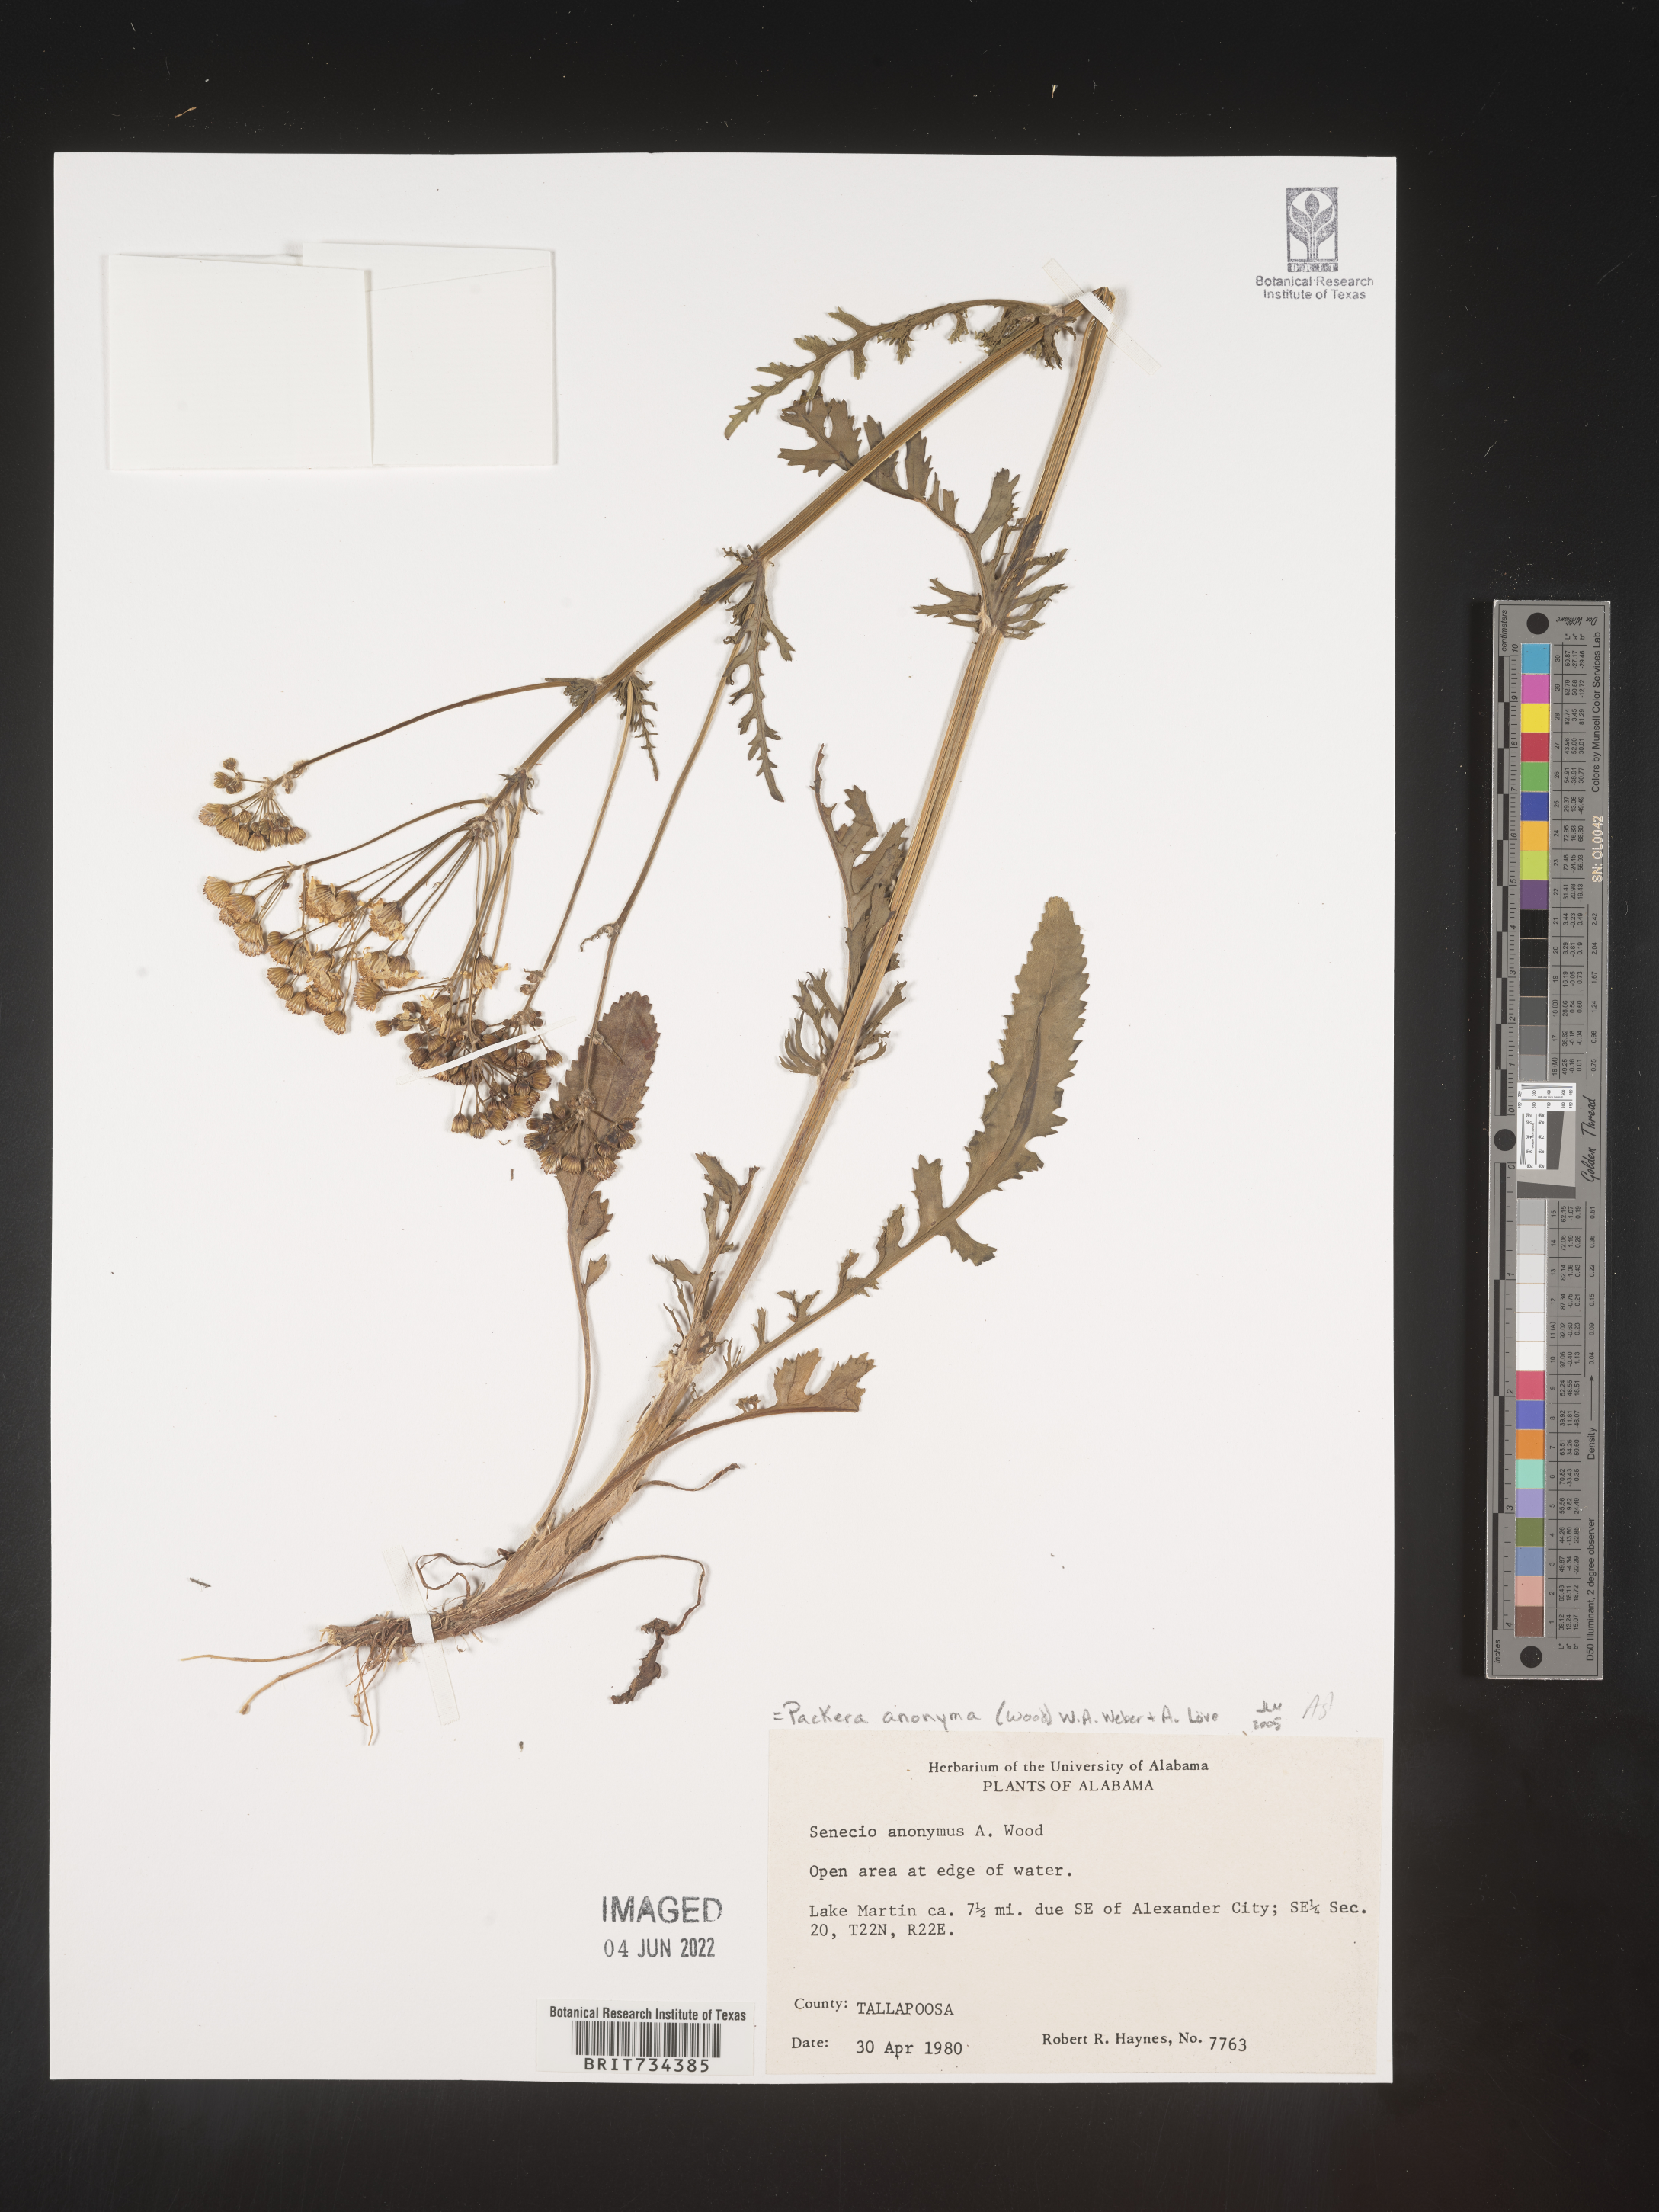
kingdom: Plantae
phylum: Tracheophyta
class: Magnoliopsida
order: Asterales
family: Asteraceae
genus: Packera
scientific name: Packera anonyma
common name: Small ragwort
